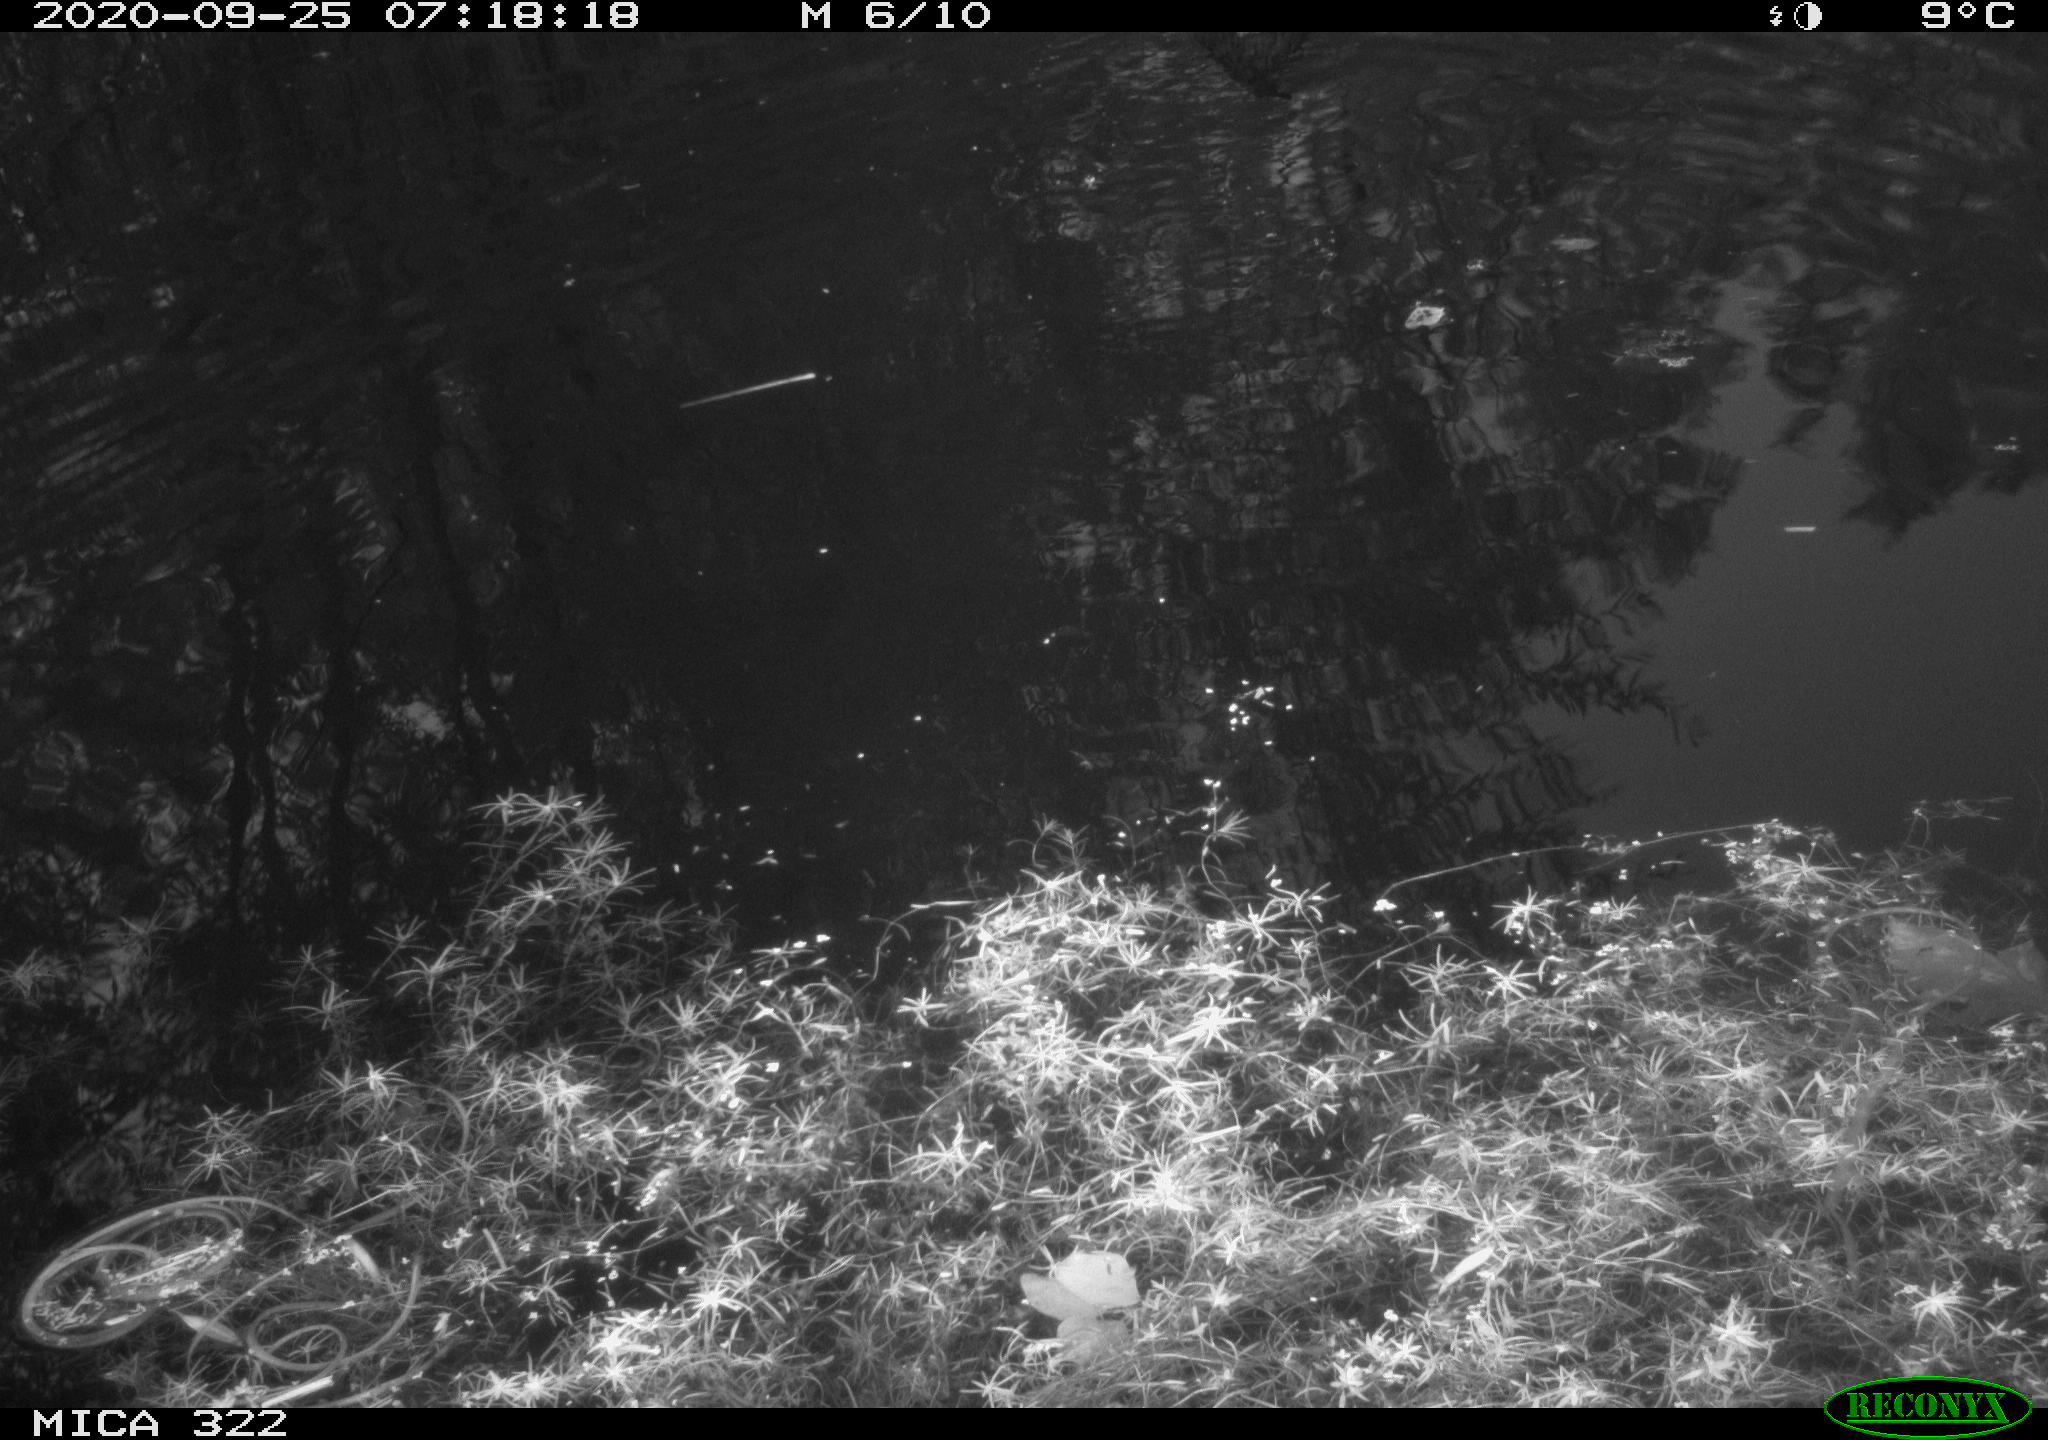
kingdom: Animalia
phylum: Chordata
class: Aves
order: Anseriformes
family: Anatidae
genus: Anas
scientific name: Anas platyrhynchos
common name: Mallard
